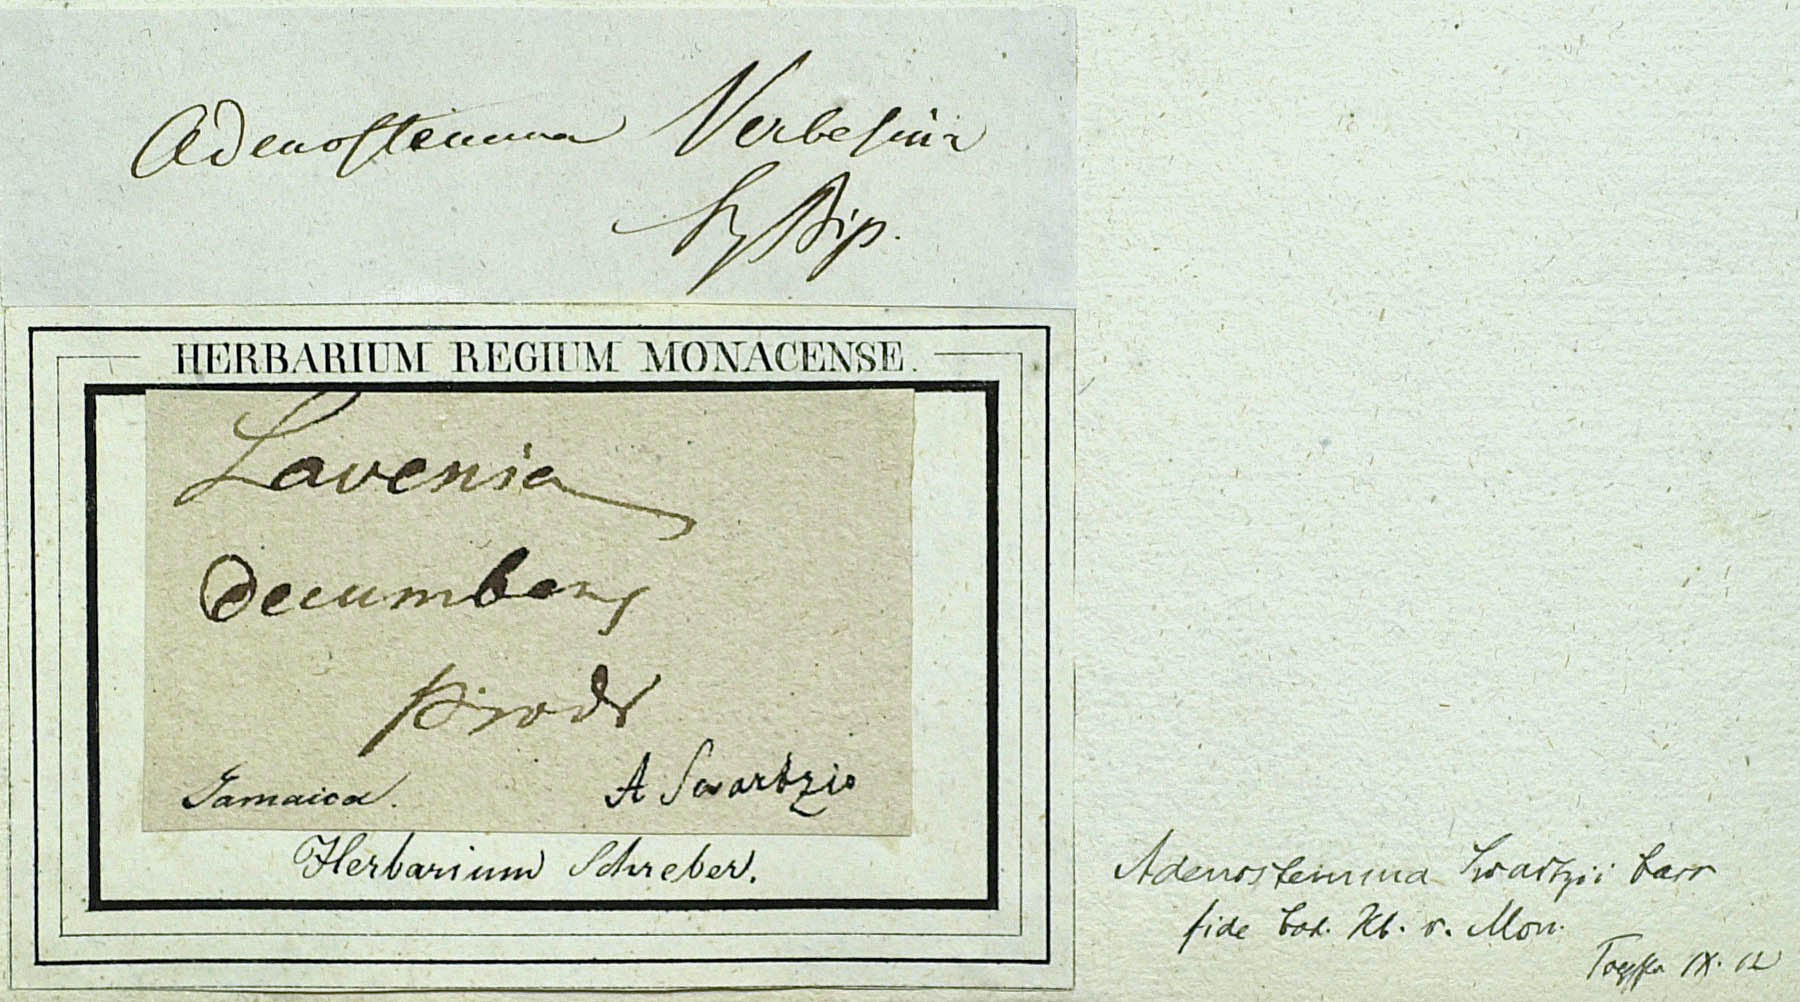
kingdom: Plantae
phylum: Tracheophyta
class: Magnoliopsida
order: Asterales
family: Asteraceae
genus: Adenostemma
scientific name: Adenostemma verbesina
